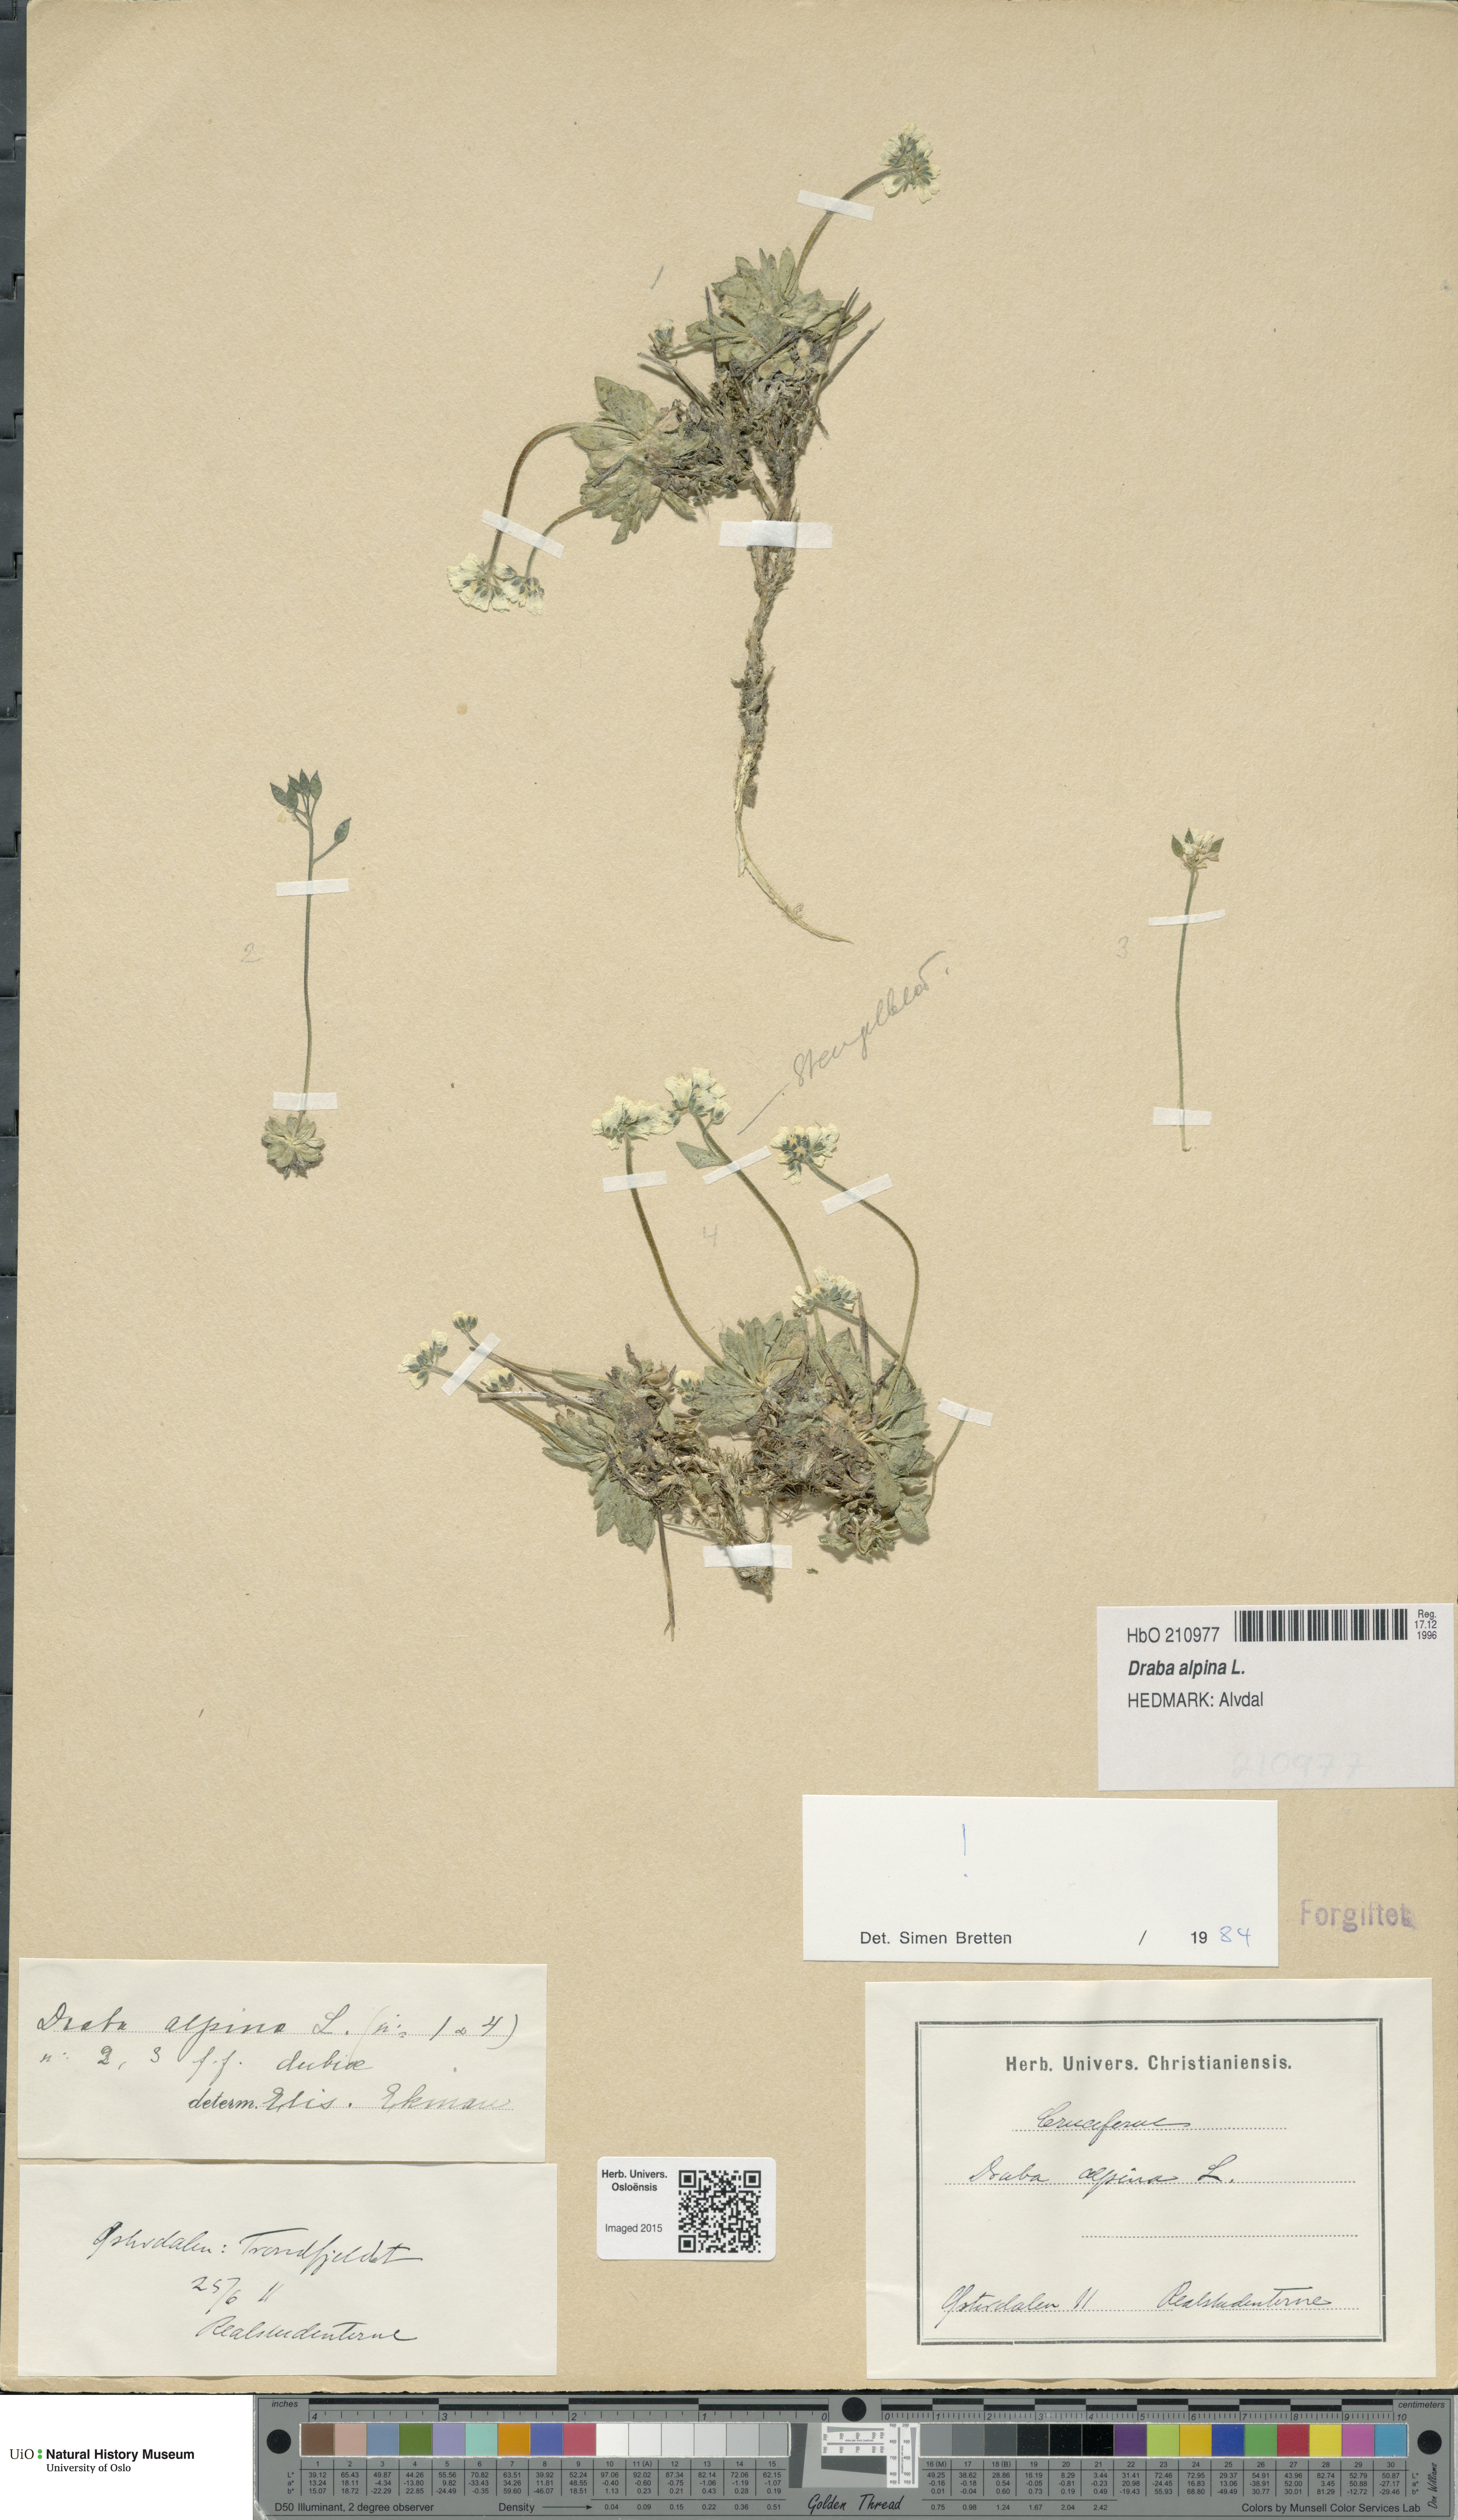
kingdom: Plantae
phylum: Tracheophyta
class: Magnoliopsida
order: Brassicales
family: Brassicaceae
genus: Draba
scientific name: Draba alpina
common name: Alpine draba
